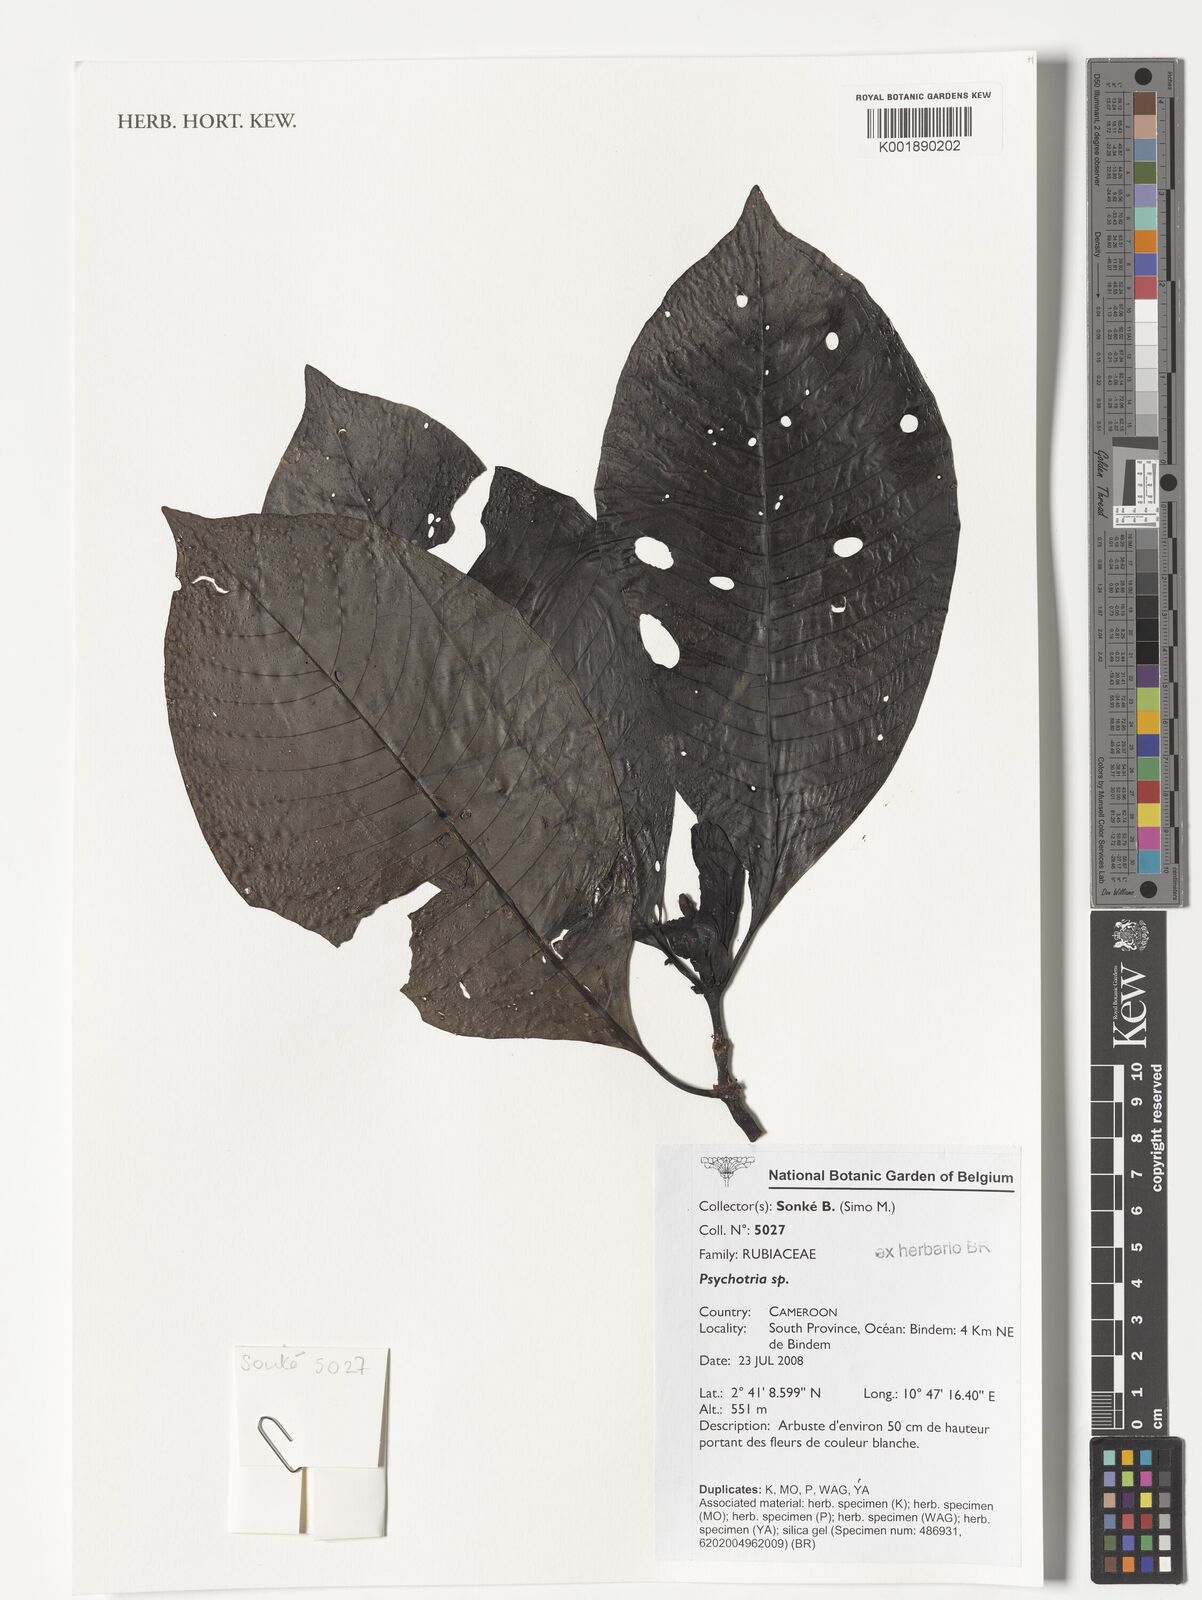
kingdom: Plantae
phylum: Tracheophyta
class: Magnoliopsida
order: Gentianales
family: Rubiaceae
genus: Psychotria
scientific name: Psychotria
